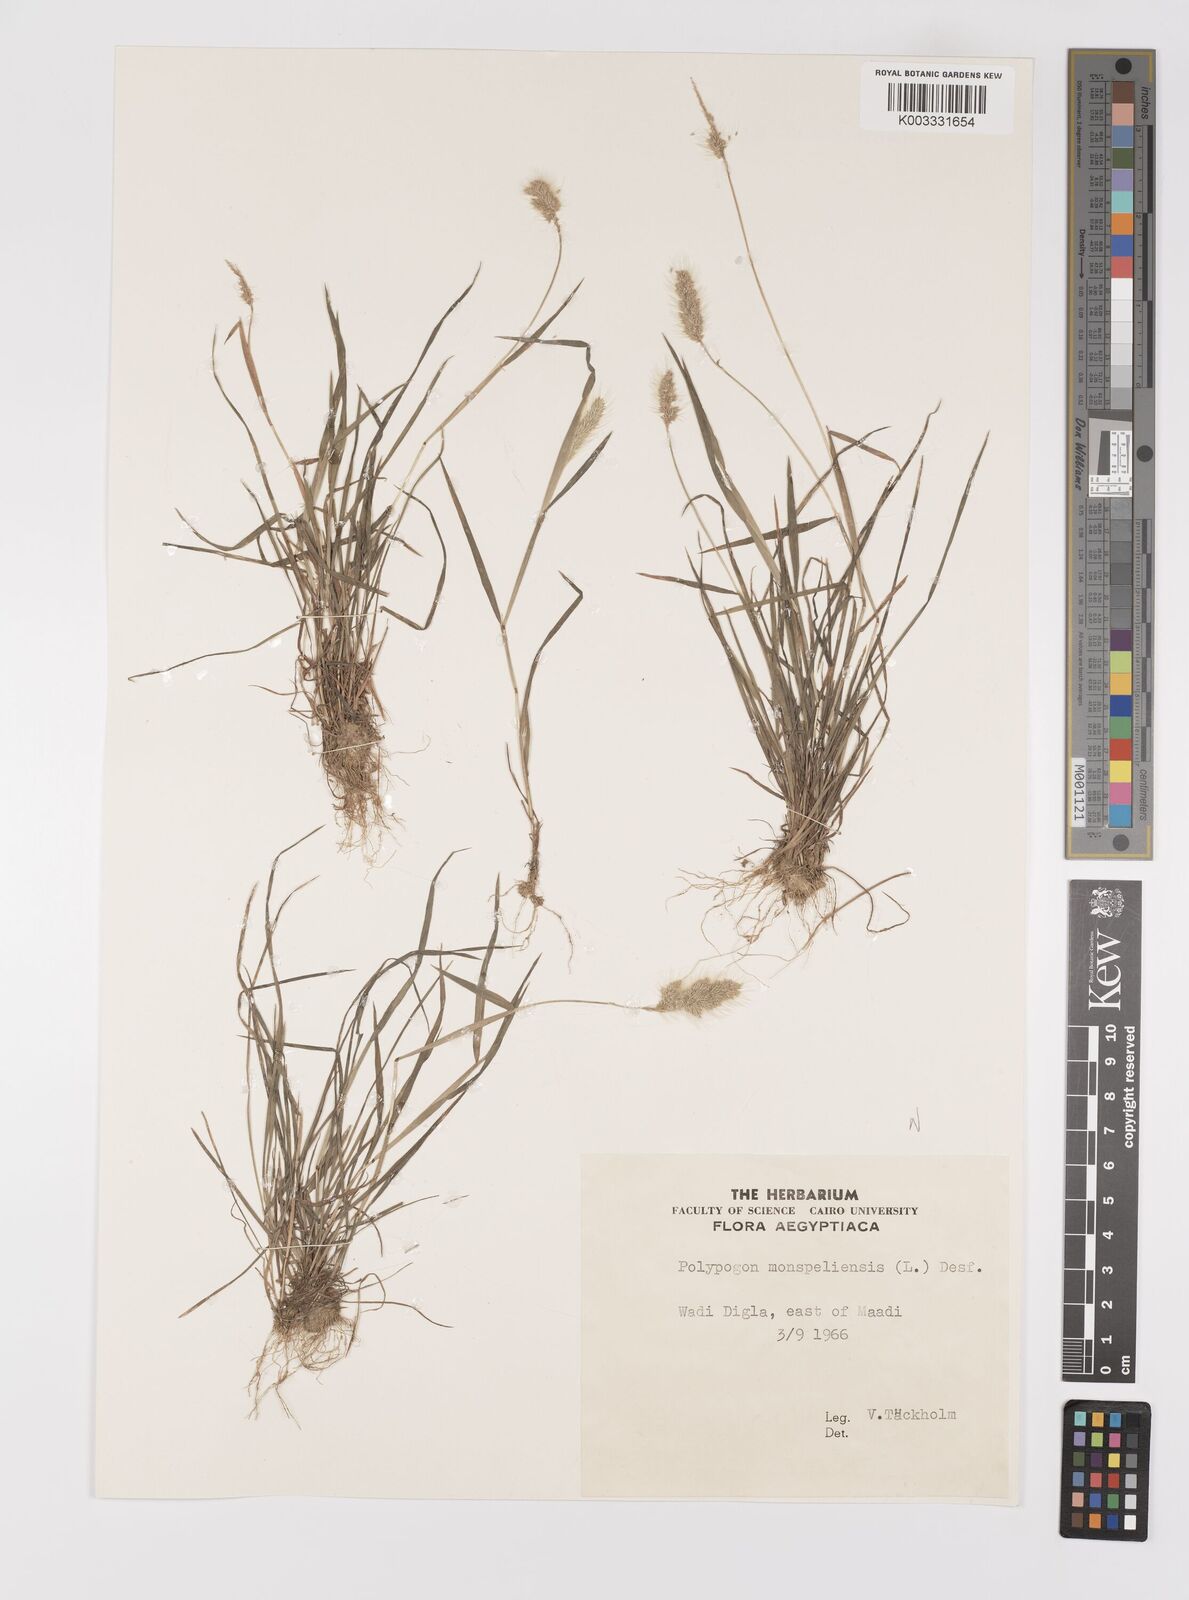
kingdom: Plantae
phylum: Tracheophyta
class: Liliopsida
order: Poales
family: Poaceae
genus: Polypogon
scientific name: Polypogon monspeliensis
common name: Annual rabbitsfoot grass
